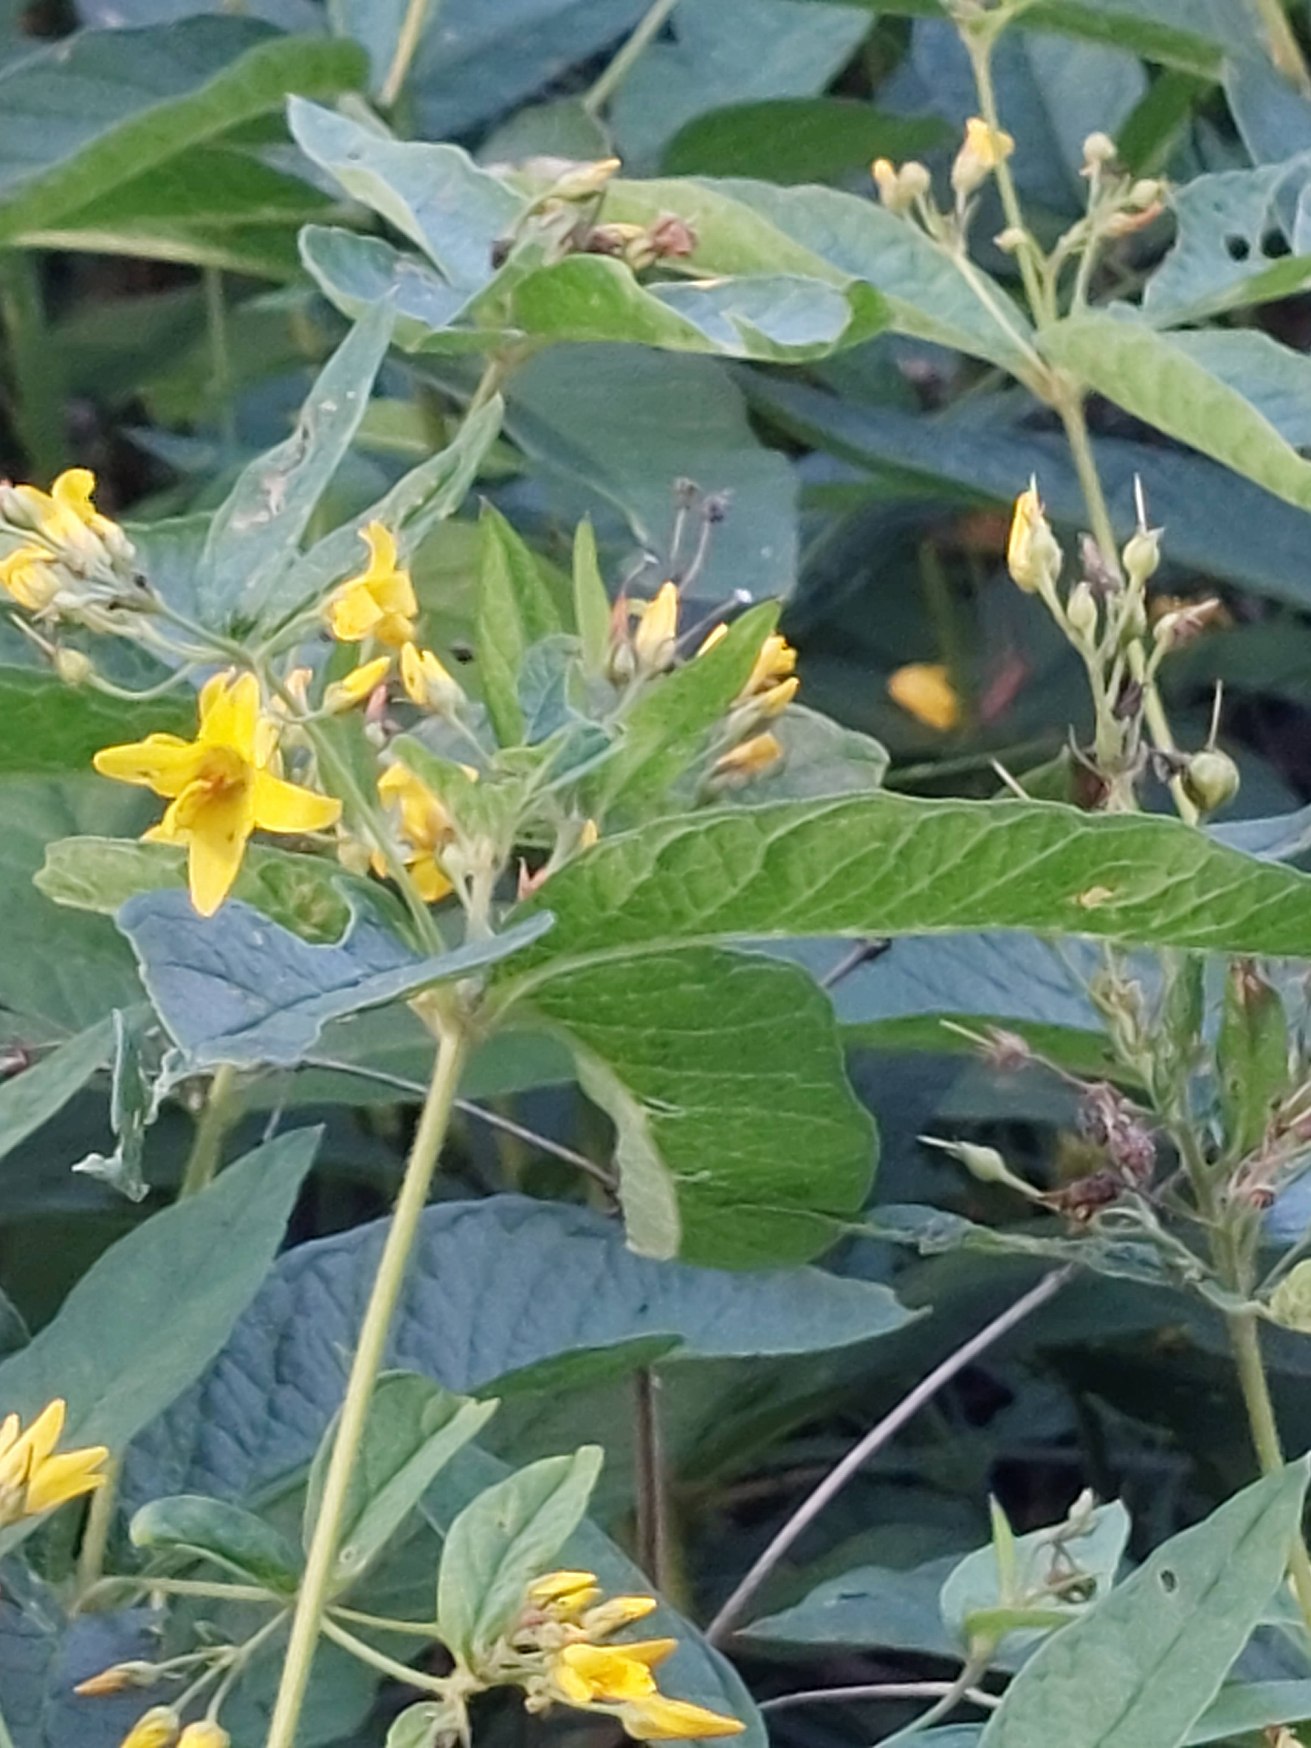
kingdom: Plantae
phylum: Tracheophyta
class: Magnoliopsida
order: Ericales
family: Primulaceae
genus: Lysimachia
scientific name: Lysimachia vulgaris
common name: Almindelig fredløs
